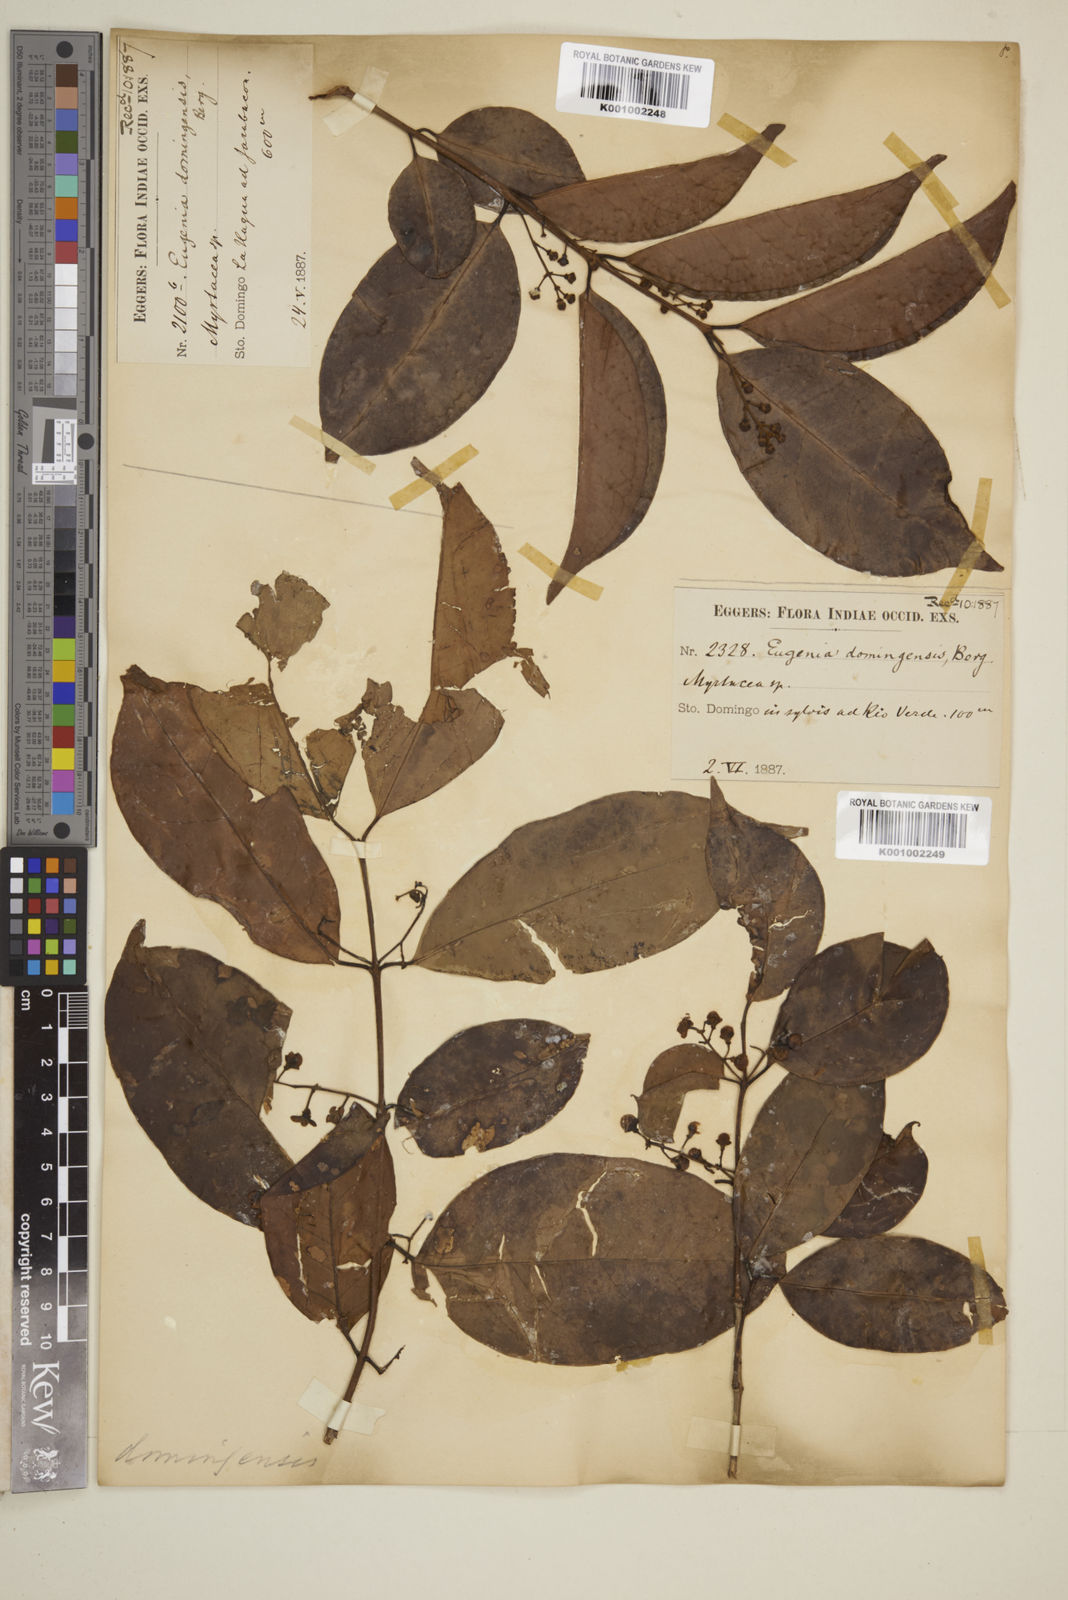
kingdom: Plantae
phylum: Tracheophyta
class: Magnoliopsida
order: Myrtales
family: Myrtaceae
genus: Eugenia
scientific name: Eugenia domingensis
